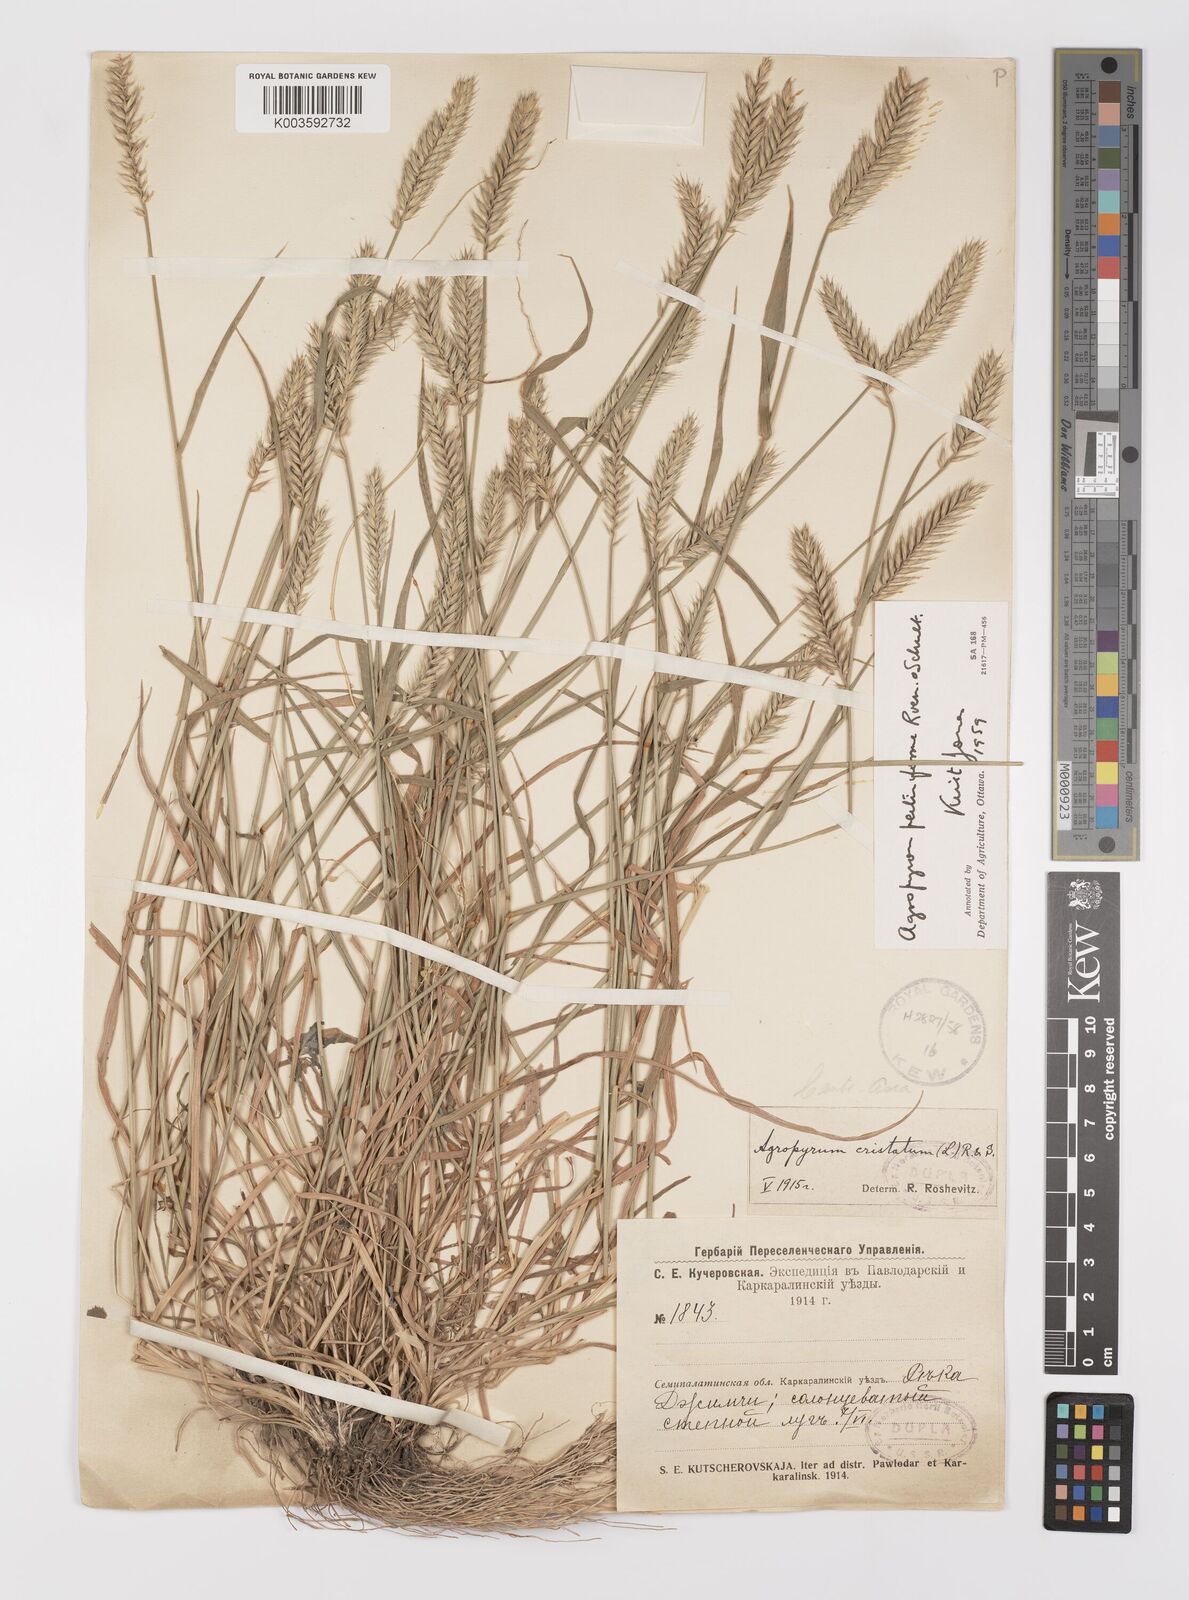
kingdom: Plantae
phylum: Tracheophyta
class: Liliopsida
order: Poales
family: Poaceae
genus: Agropyron
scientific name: Agropyron cristatum
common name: Crested wheatgrass
